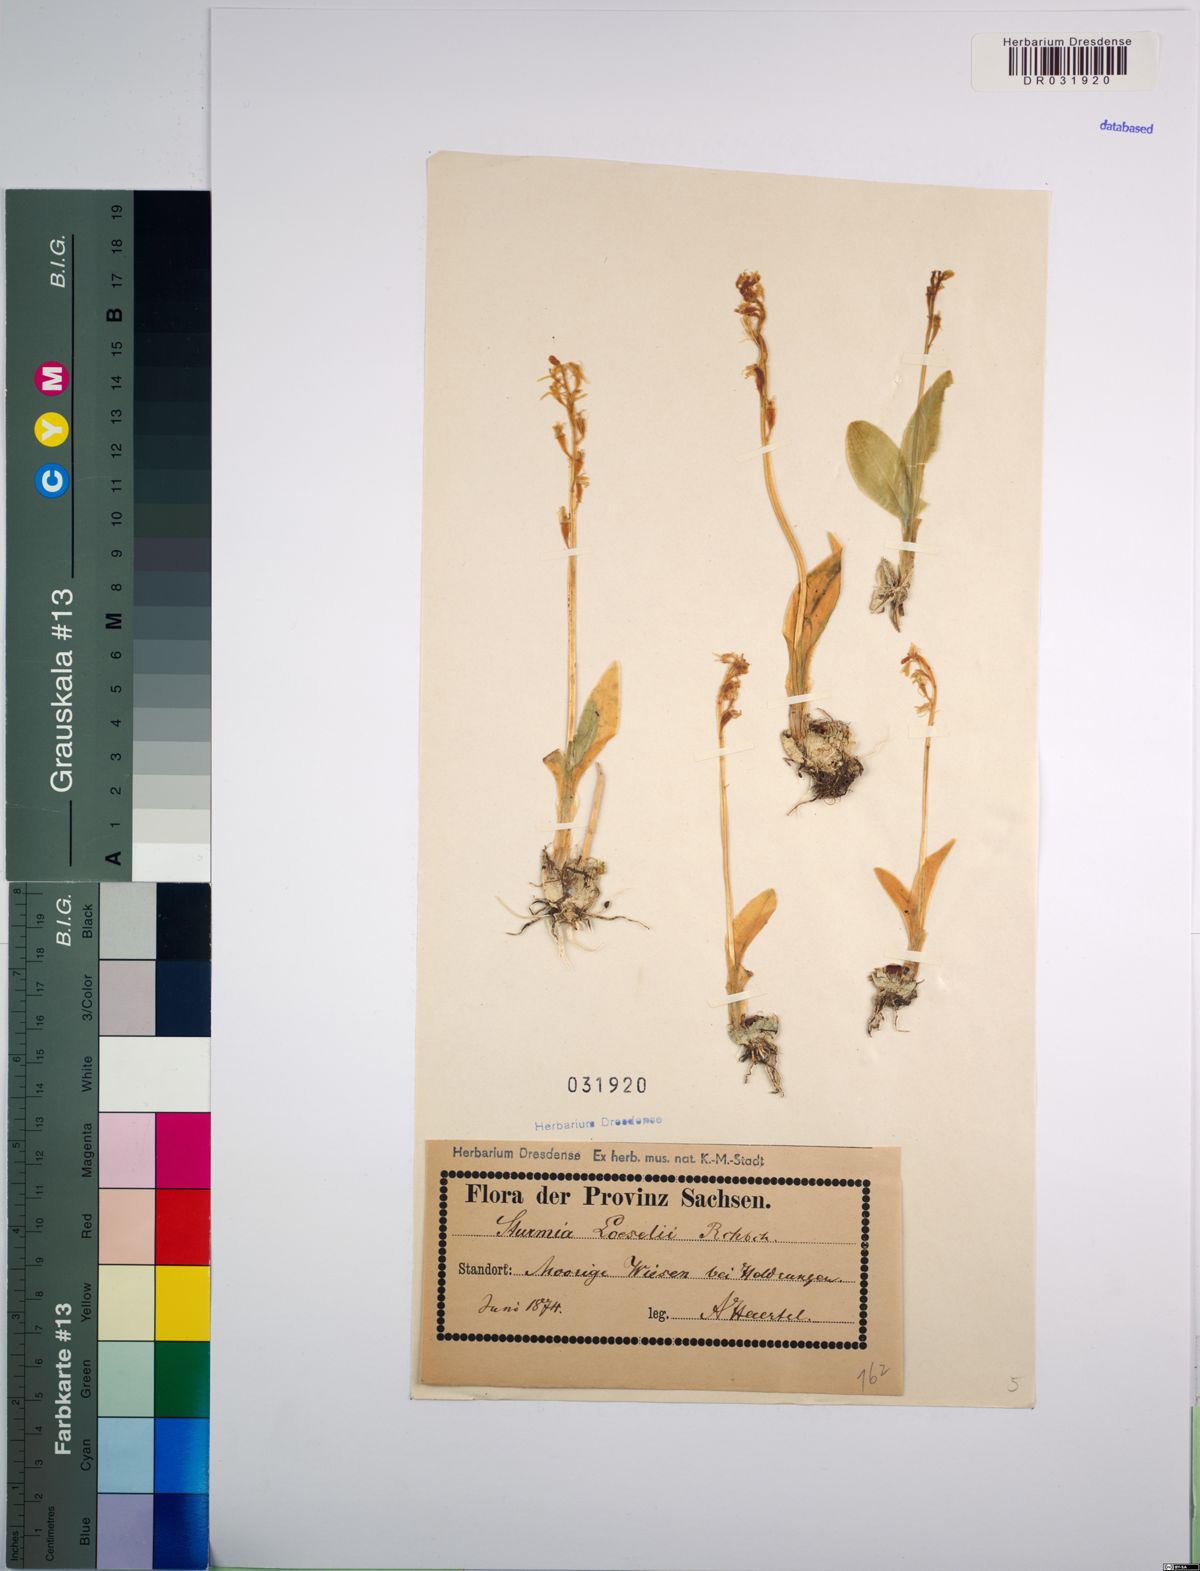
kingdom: Animalia
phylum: Arthropoda
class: Insecta
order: Coleoptera
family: Curculionidae
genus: Liparis
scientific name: Liparis loeselii
